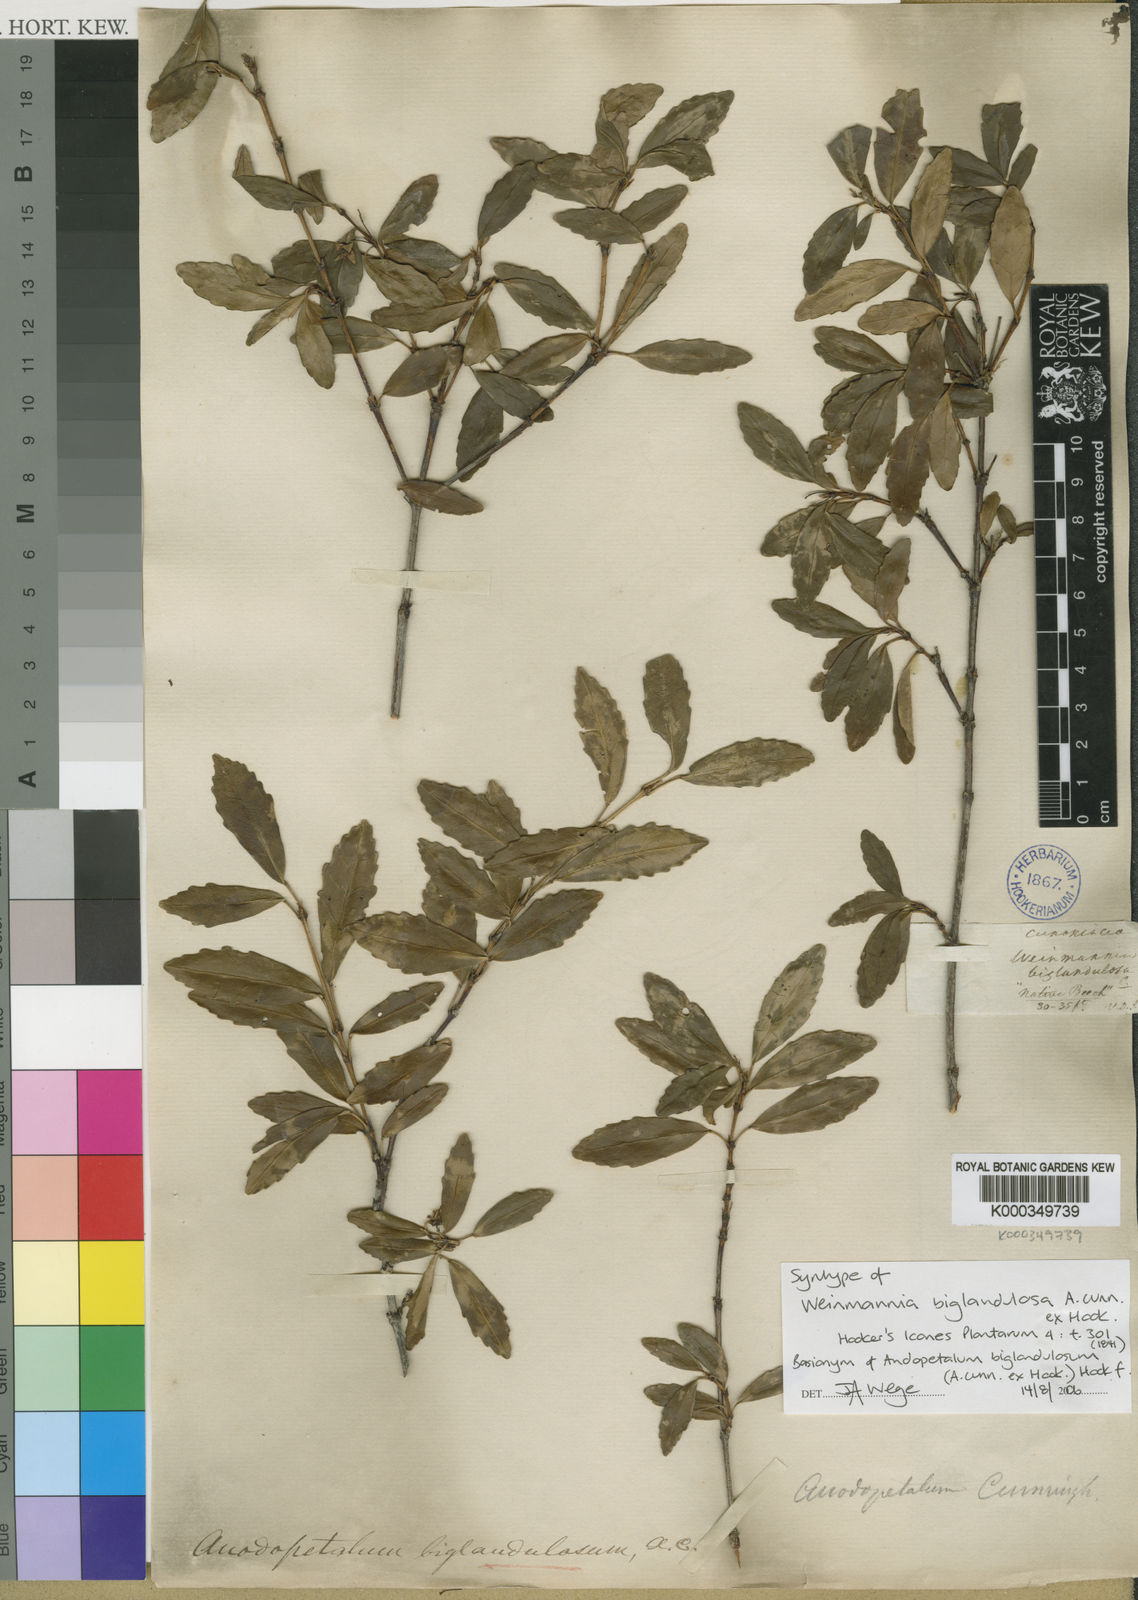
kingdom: Plantae
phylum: Tracheophyta
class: Magnoliopsida
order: Oxalidales
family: Cunoniaceae
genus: Anodopetalum
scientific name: Anodopetalum biglandulosum
